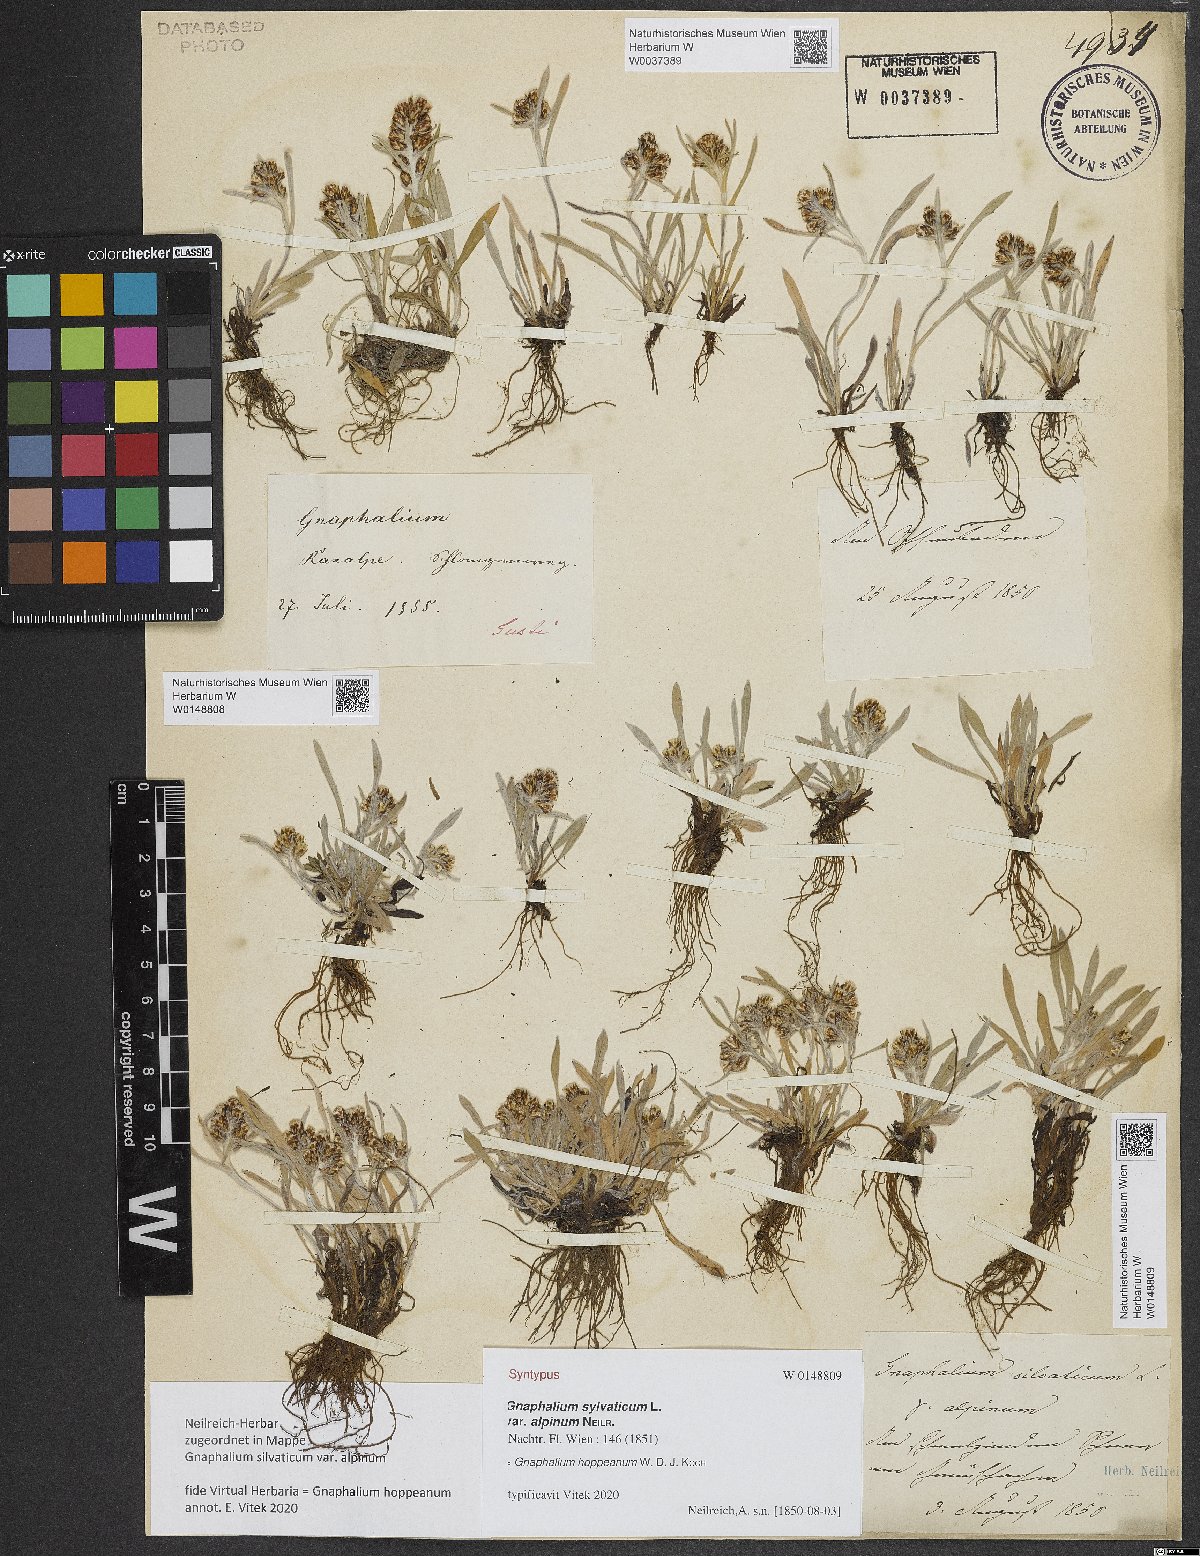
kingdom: Plantae
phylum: Tracheophyta
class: Magnoliopsida
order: Asterales
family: Asteraceae
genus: Gnaphalium
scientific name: Gnaphalium sylvaticum
